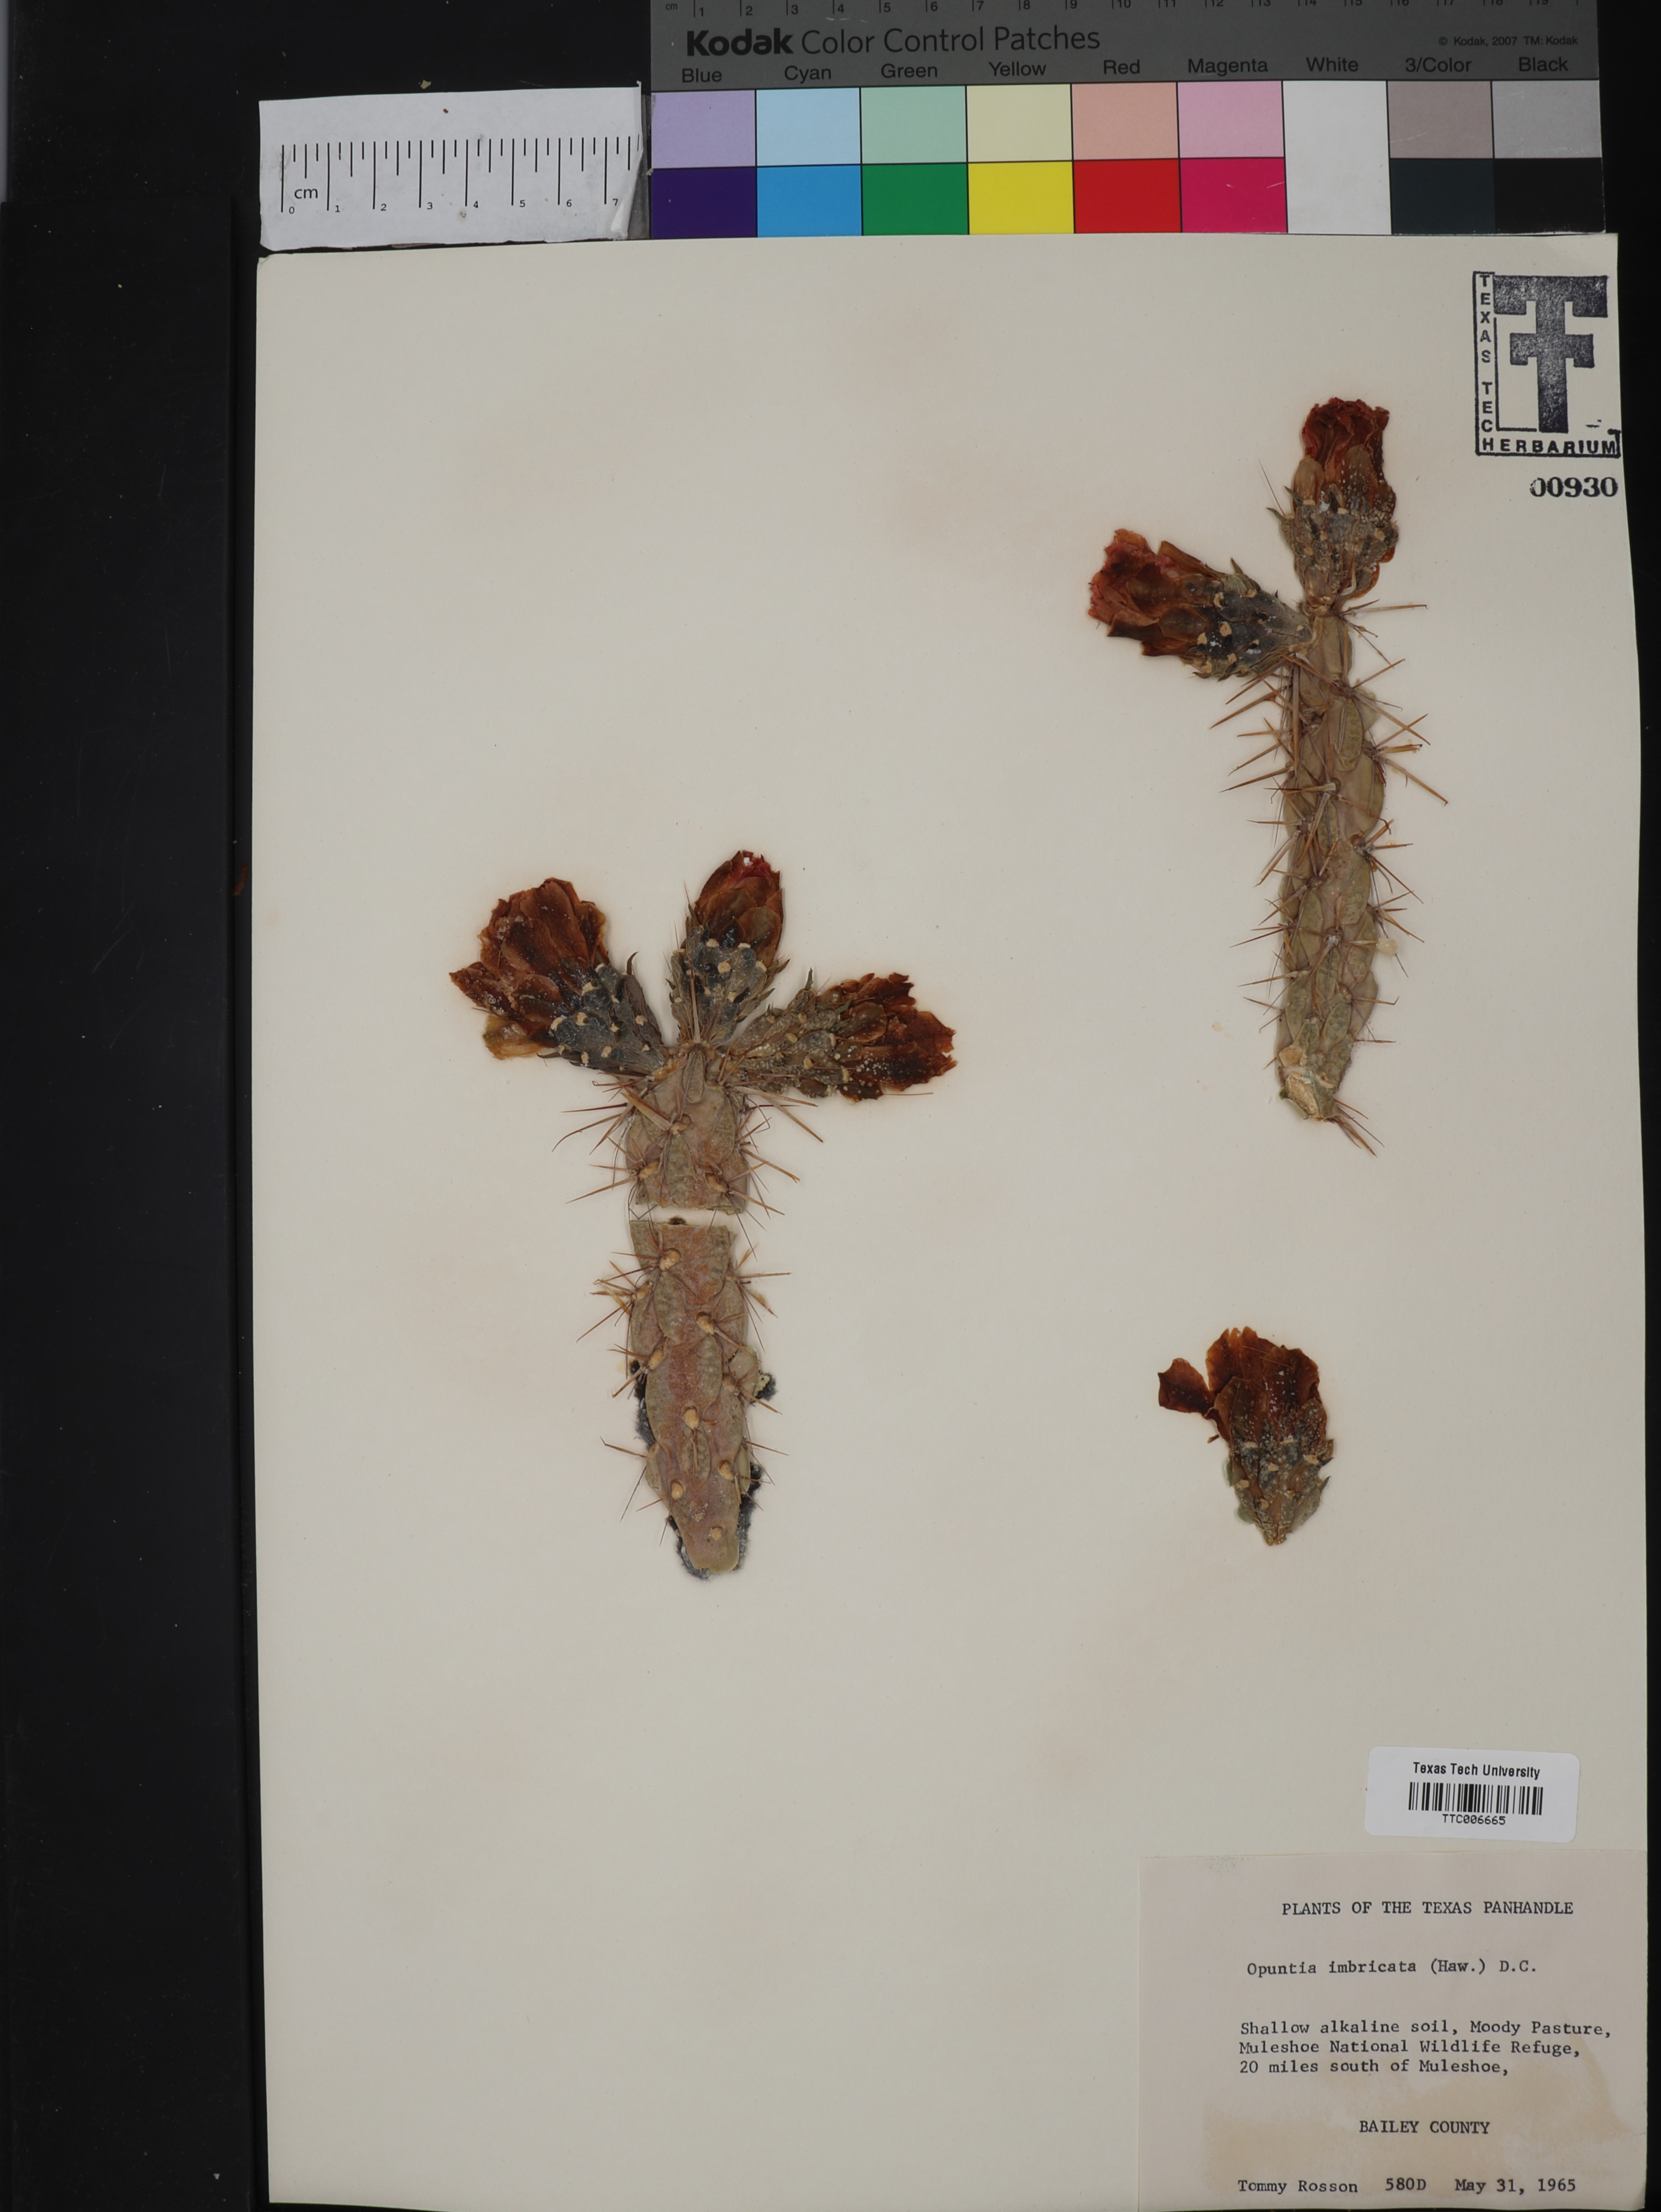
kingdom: Plantae
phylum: Tracheophyta
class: Magnoliopsida
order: Caryophyllales
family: Cactaceae
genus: Cylindropuntia
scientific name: Cylindropuntia imbricata
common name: Candelabrum cactus
